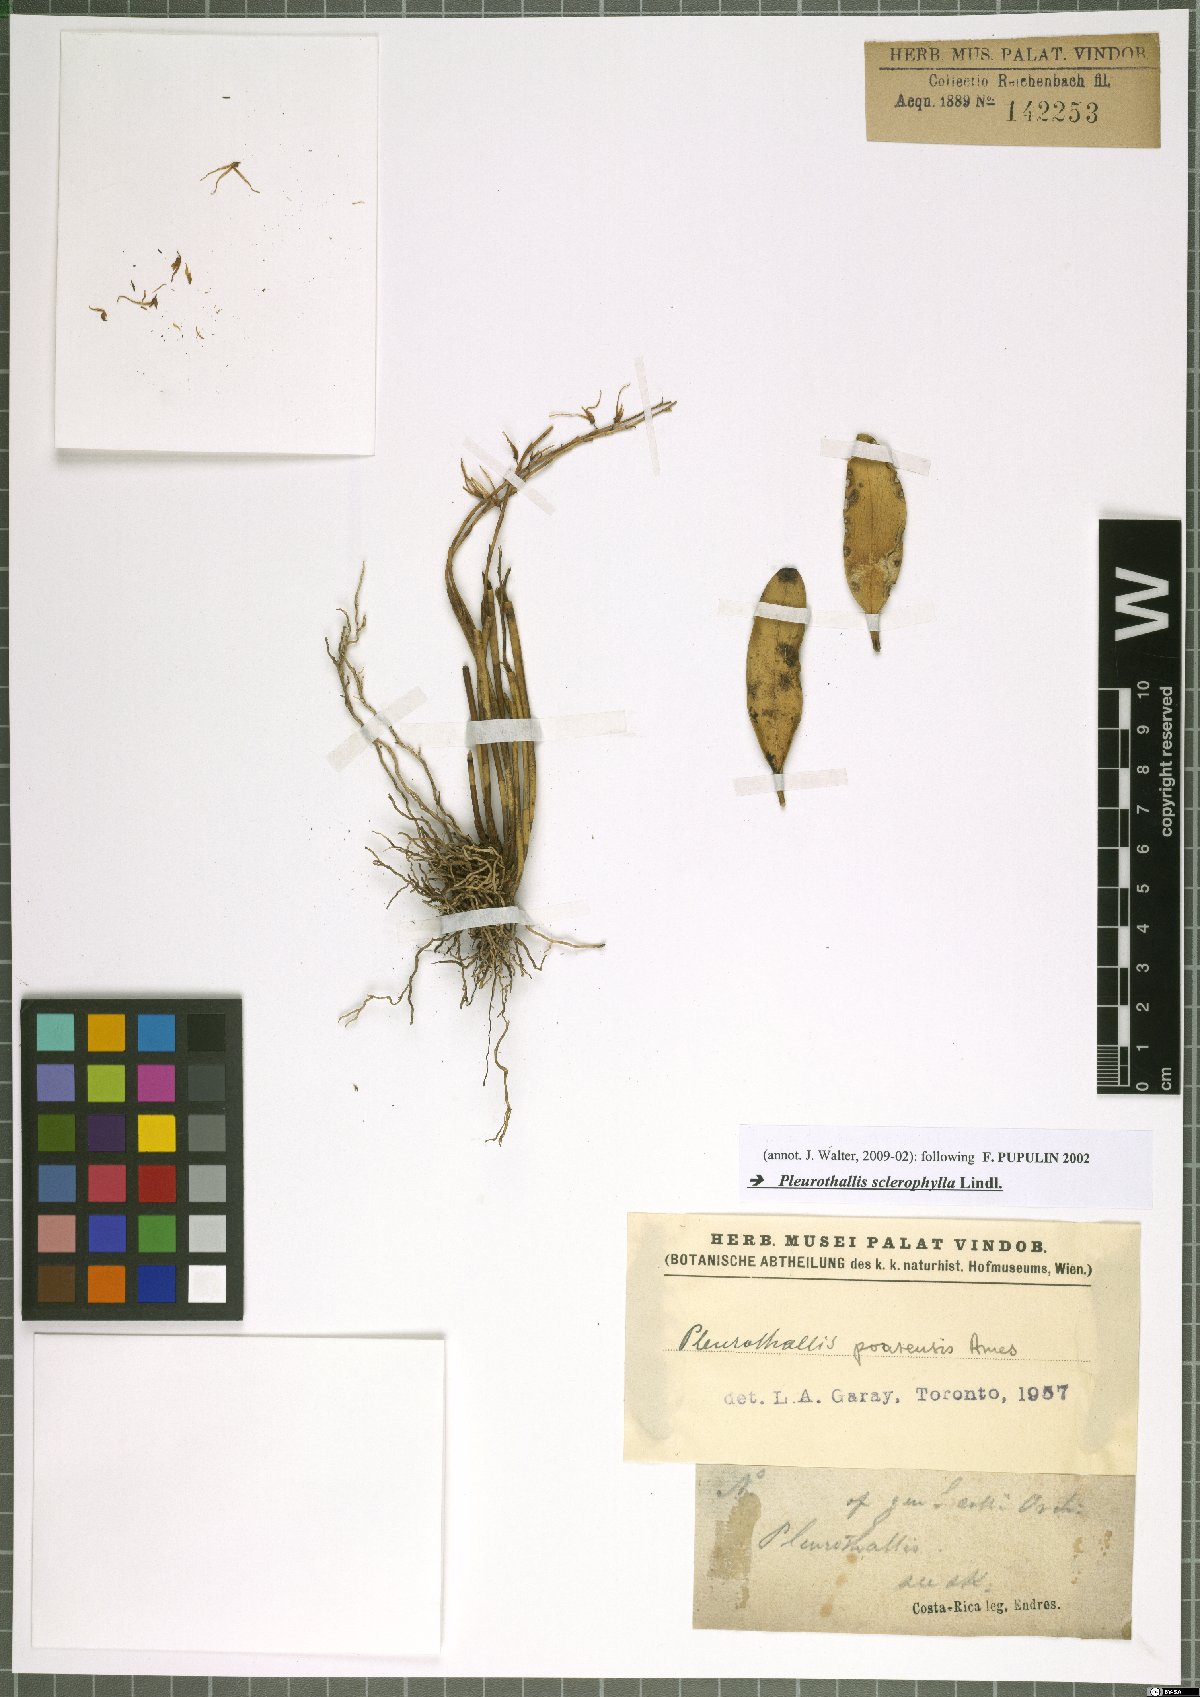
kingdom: Plantae
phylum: Tracheophyta
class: Liliopsida
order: Asparagales
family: Orchidaceae
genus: Stelis
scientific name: Stelis sclerophylla
